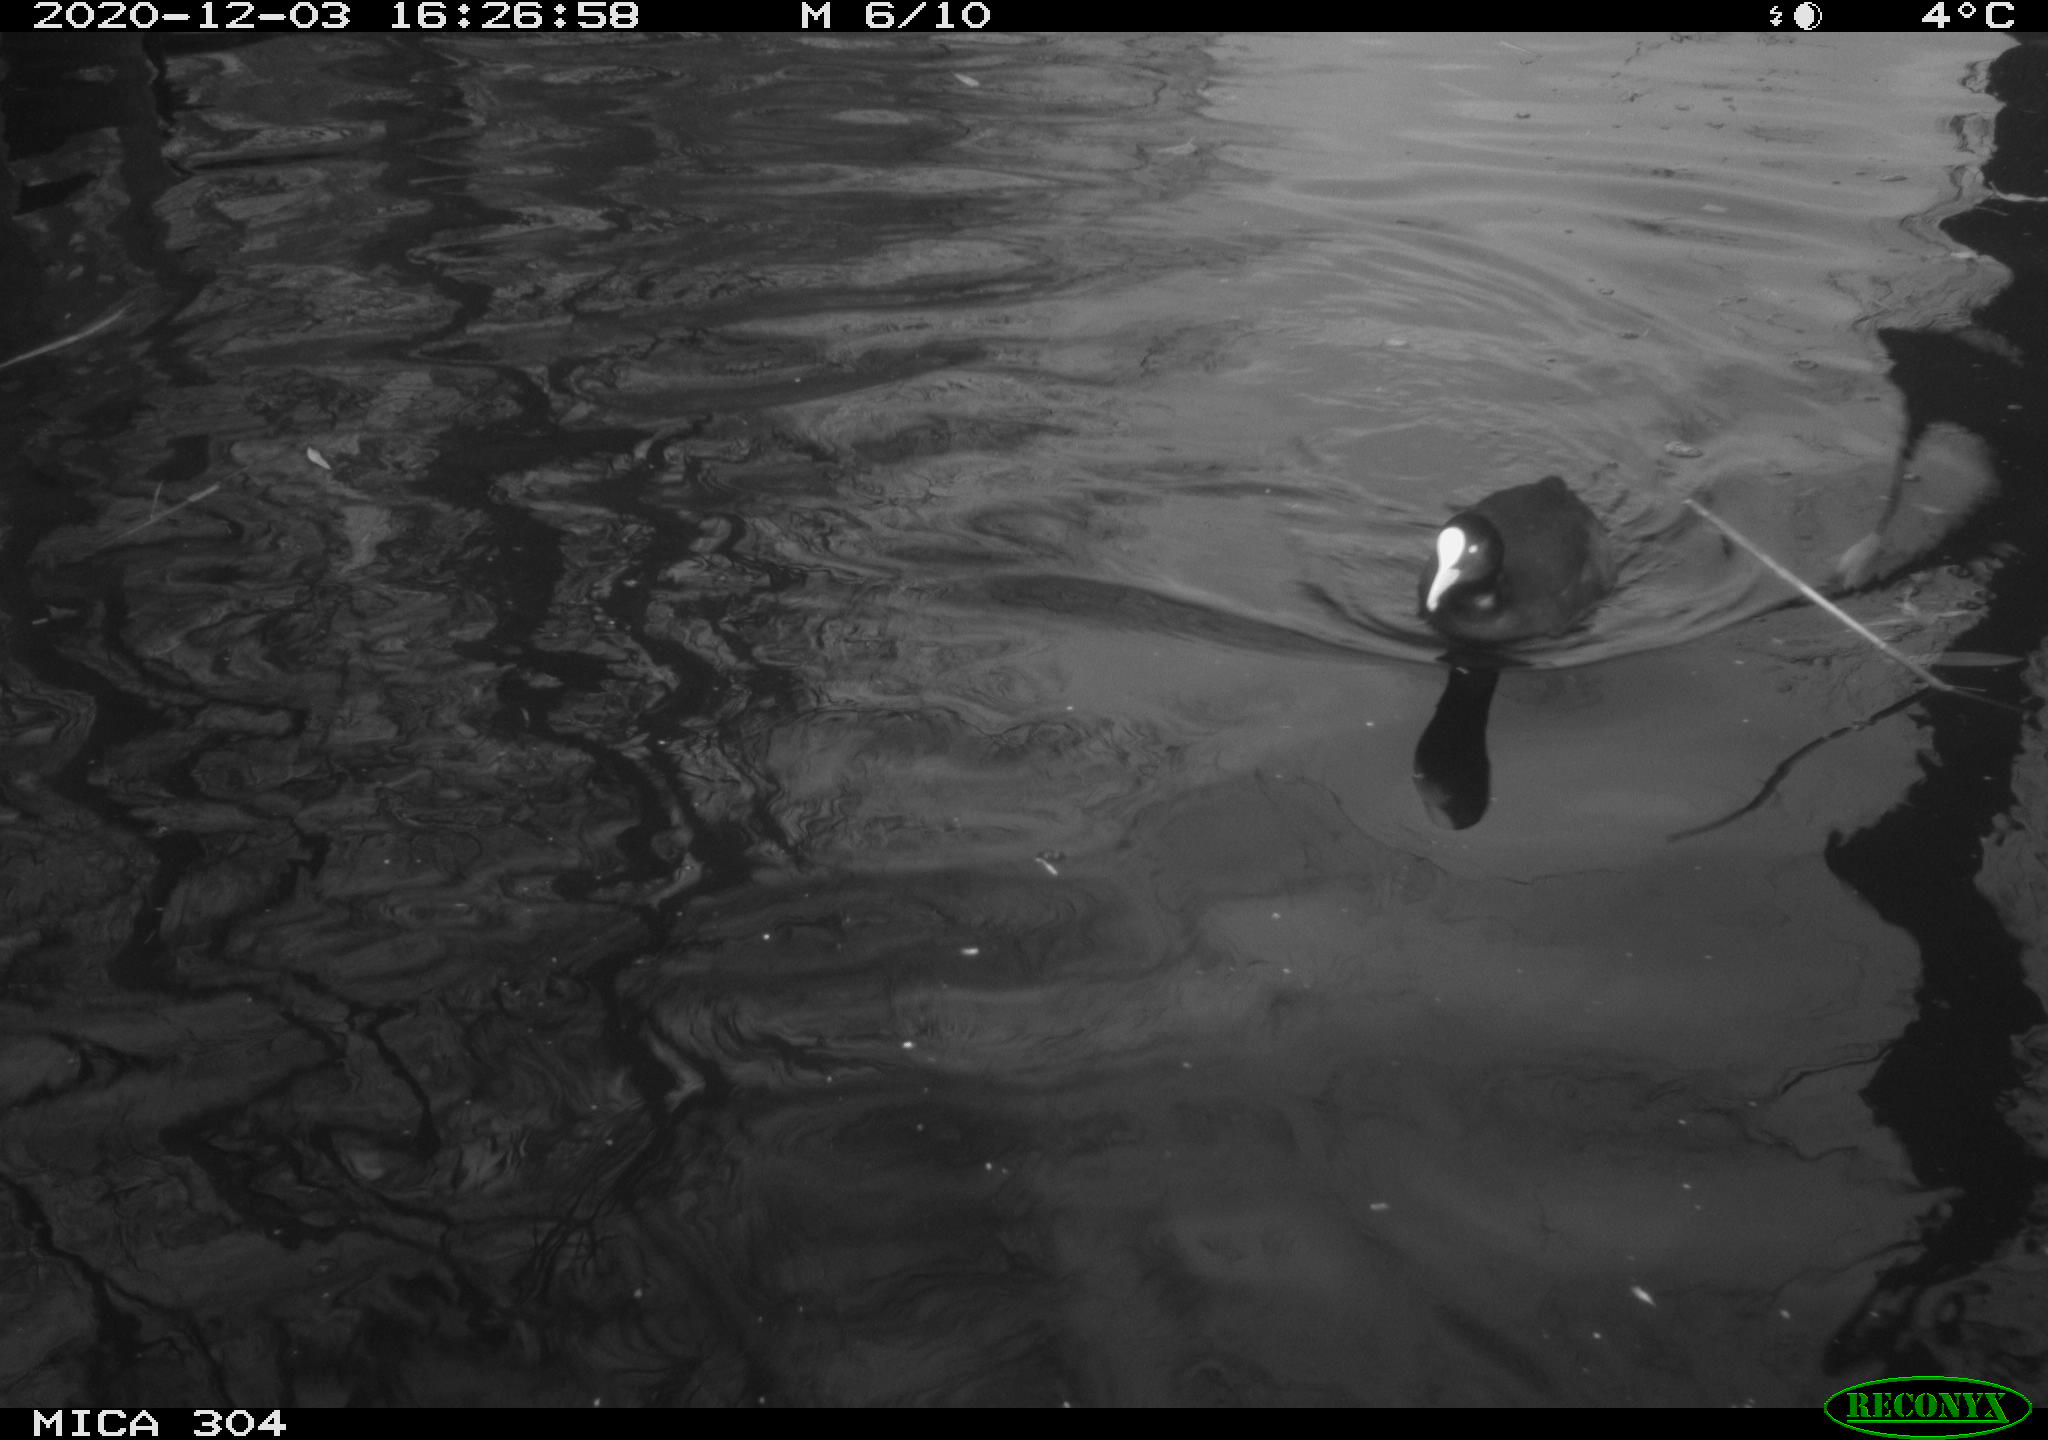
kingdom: Animalia
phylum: Chordata
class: Aves
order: Gruiformes
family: Rallidae
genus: Fulica
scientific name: Fulica atra
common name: Eurasian coot
